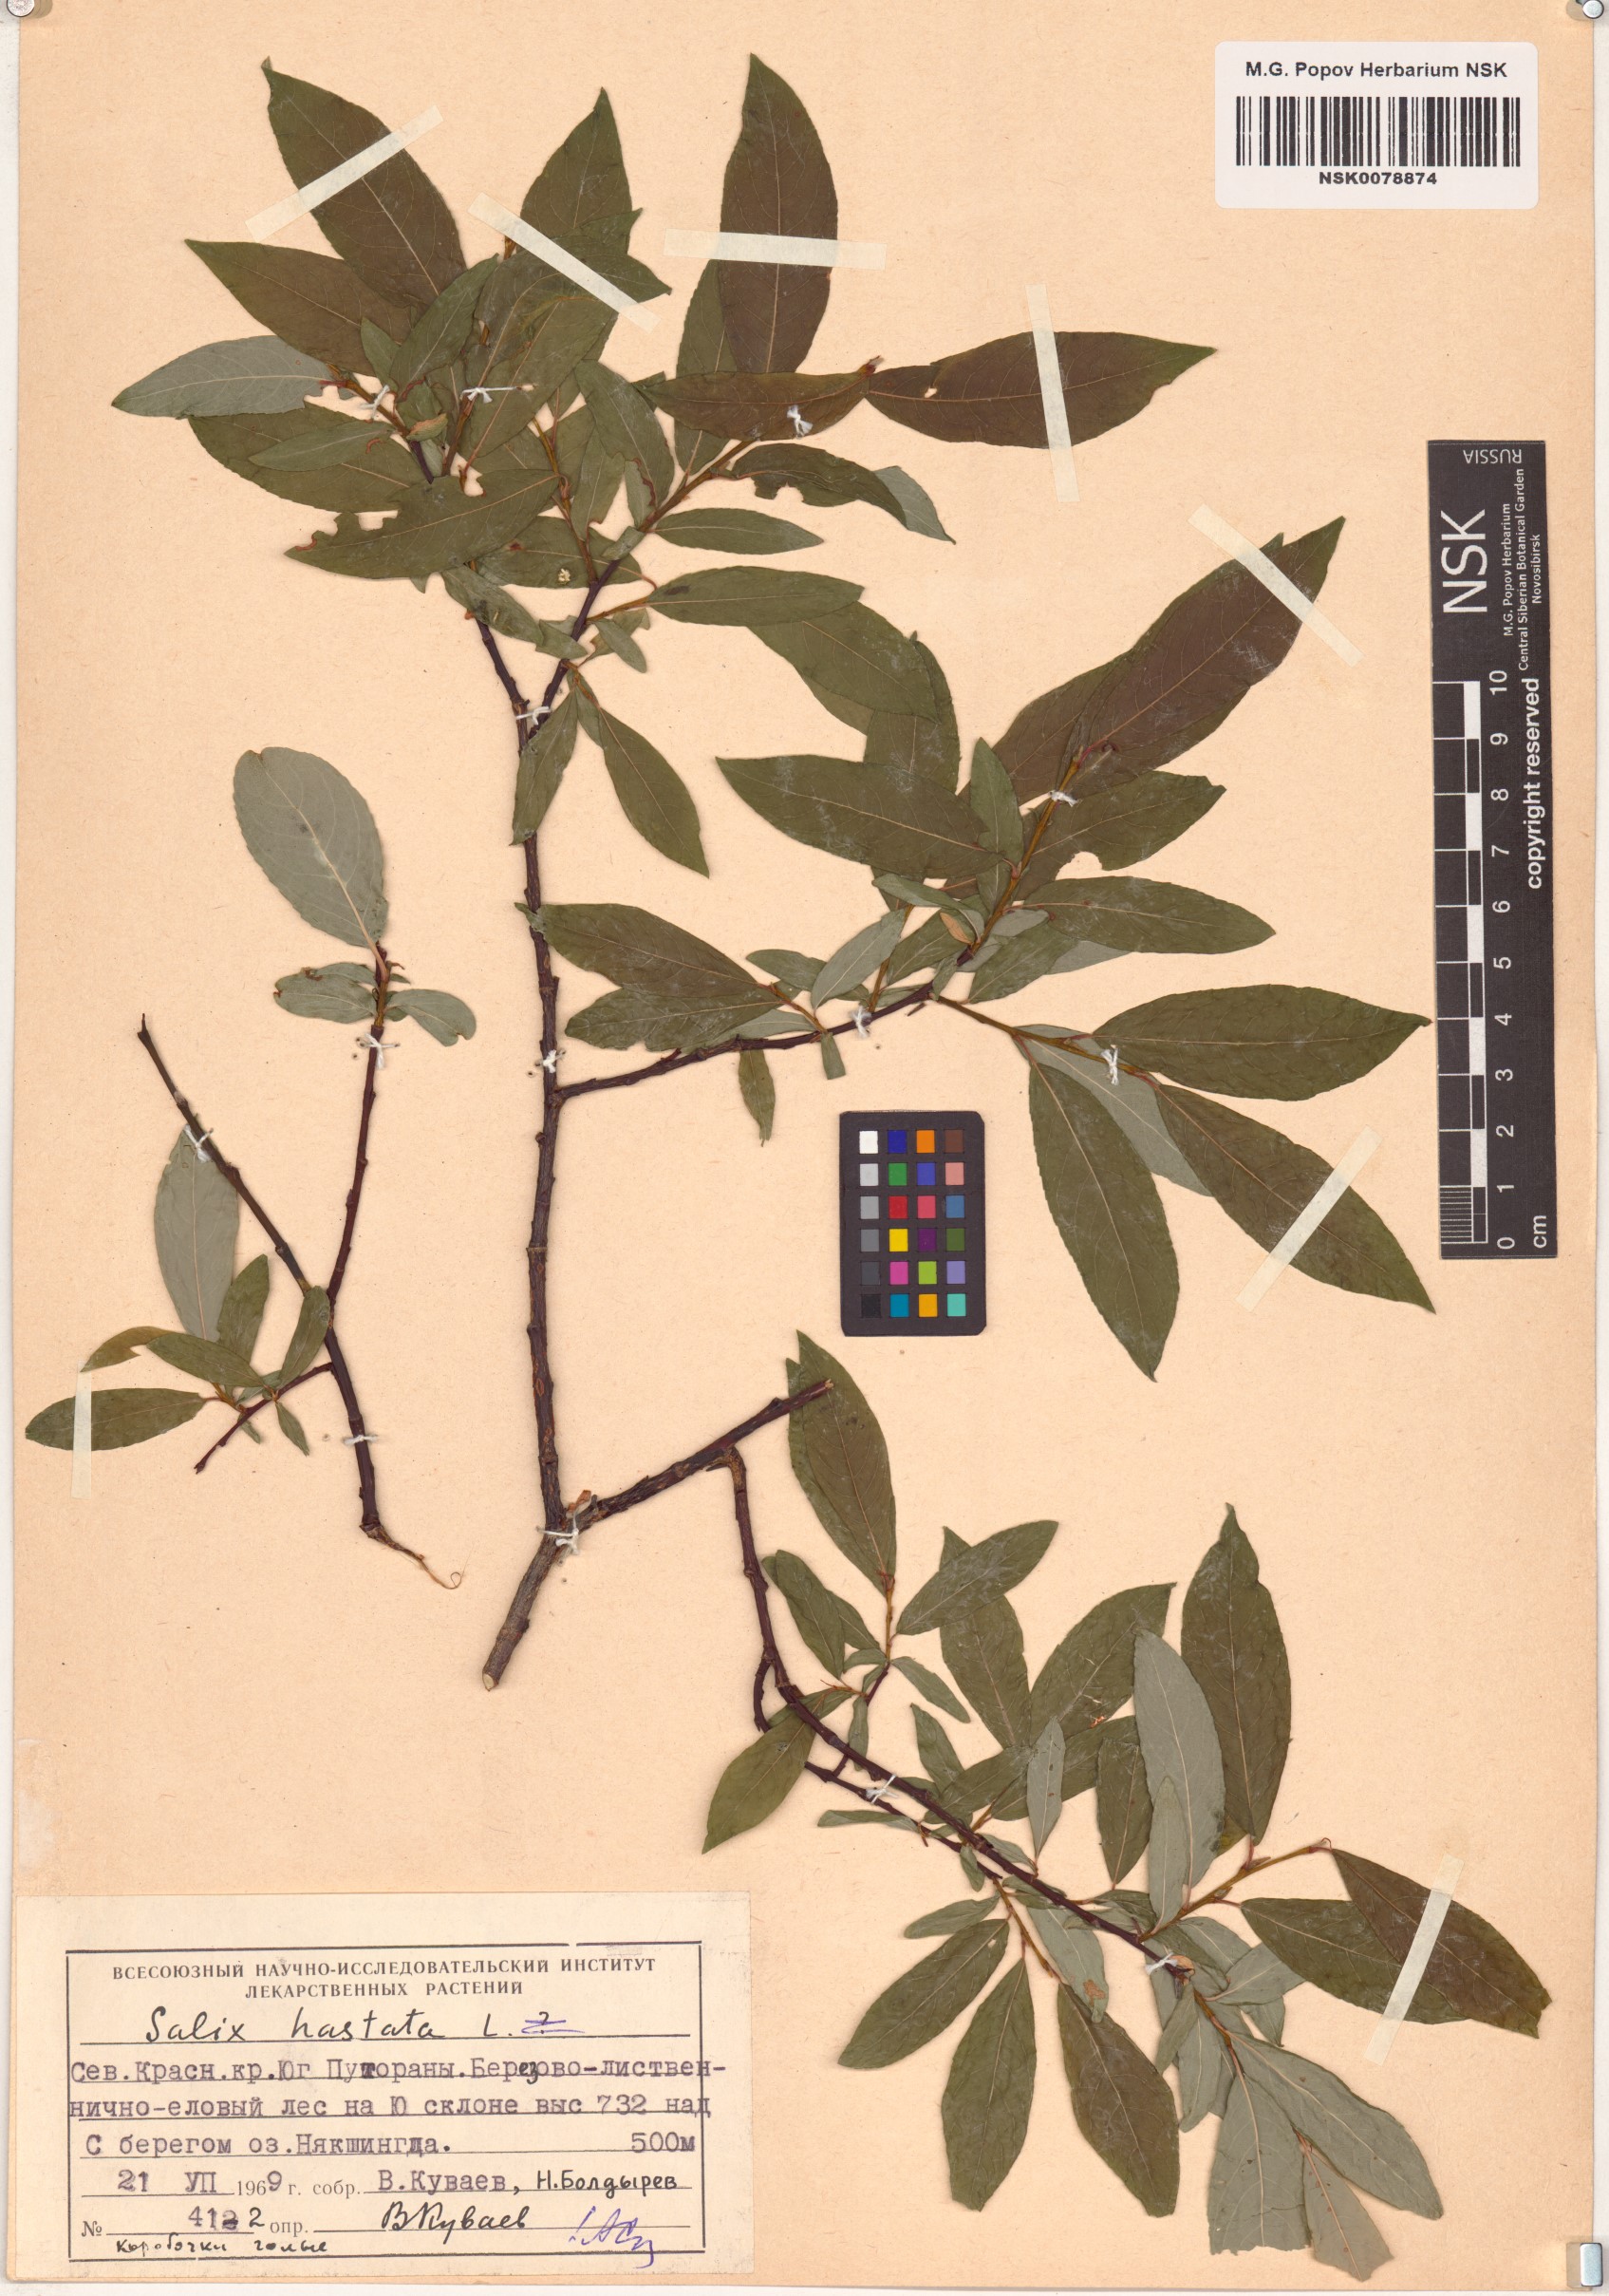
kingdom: Plantae
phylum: Tracheophyta
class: Magnoliopsida
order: Malpighiales
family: Salicaceae
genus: Salix
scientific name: Salix hastata
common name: Halberd willow
